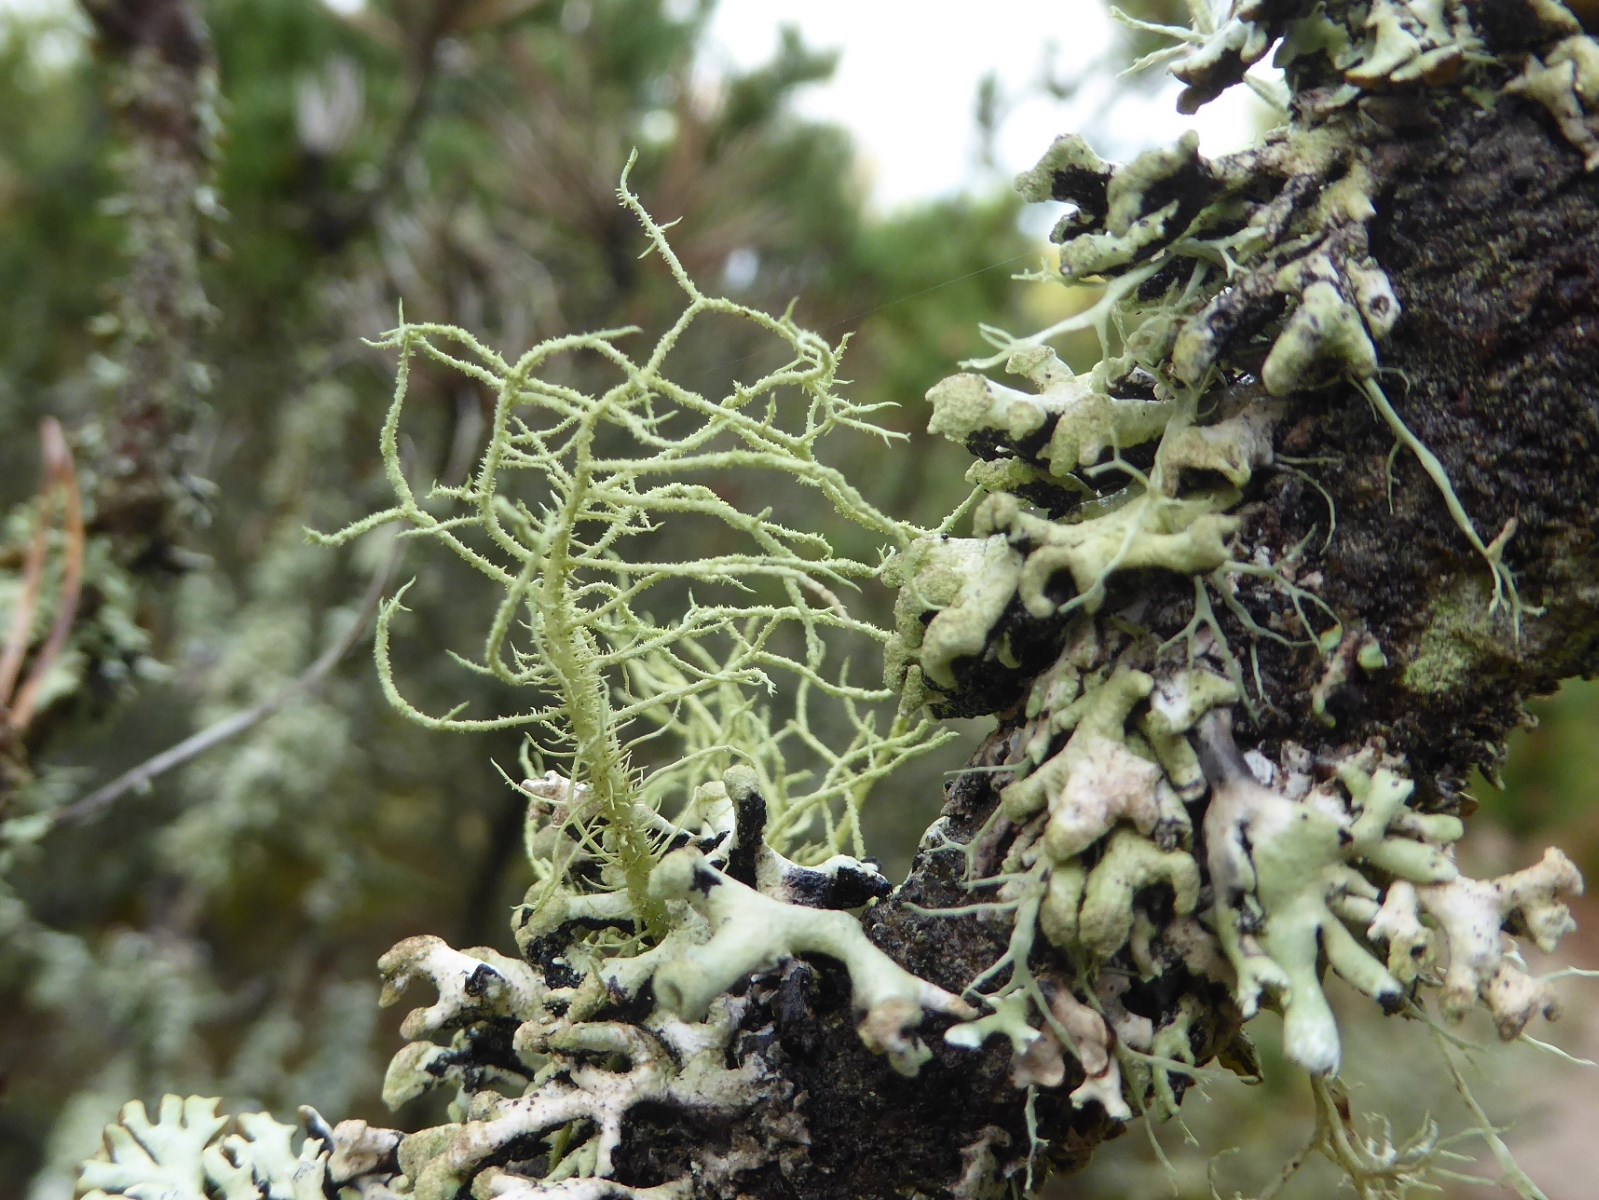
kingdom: Fungi
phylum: Ascomycota
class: Lecanoromycetes
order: Lecanorales
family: Parmeliaceae
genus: Usnea
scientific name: Usnea hirta
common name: liden skæglav
